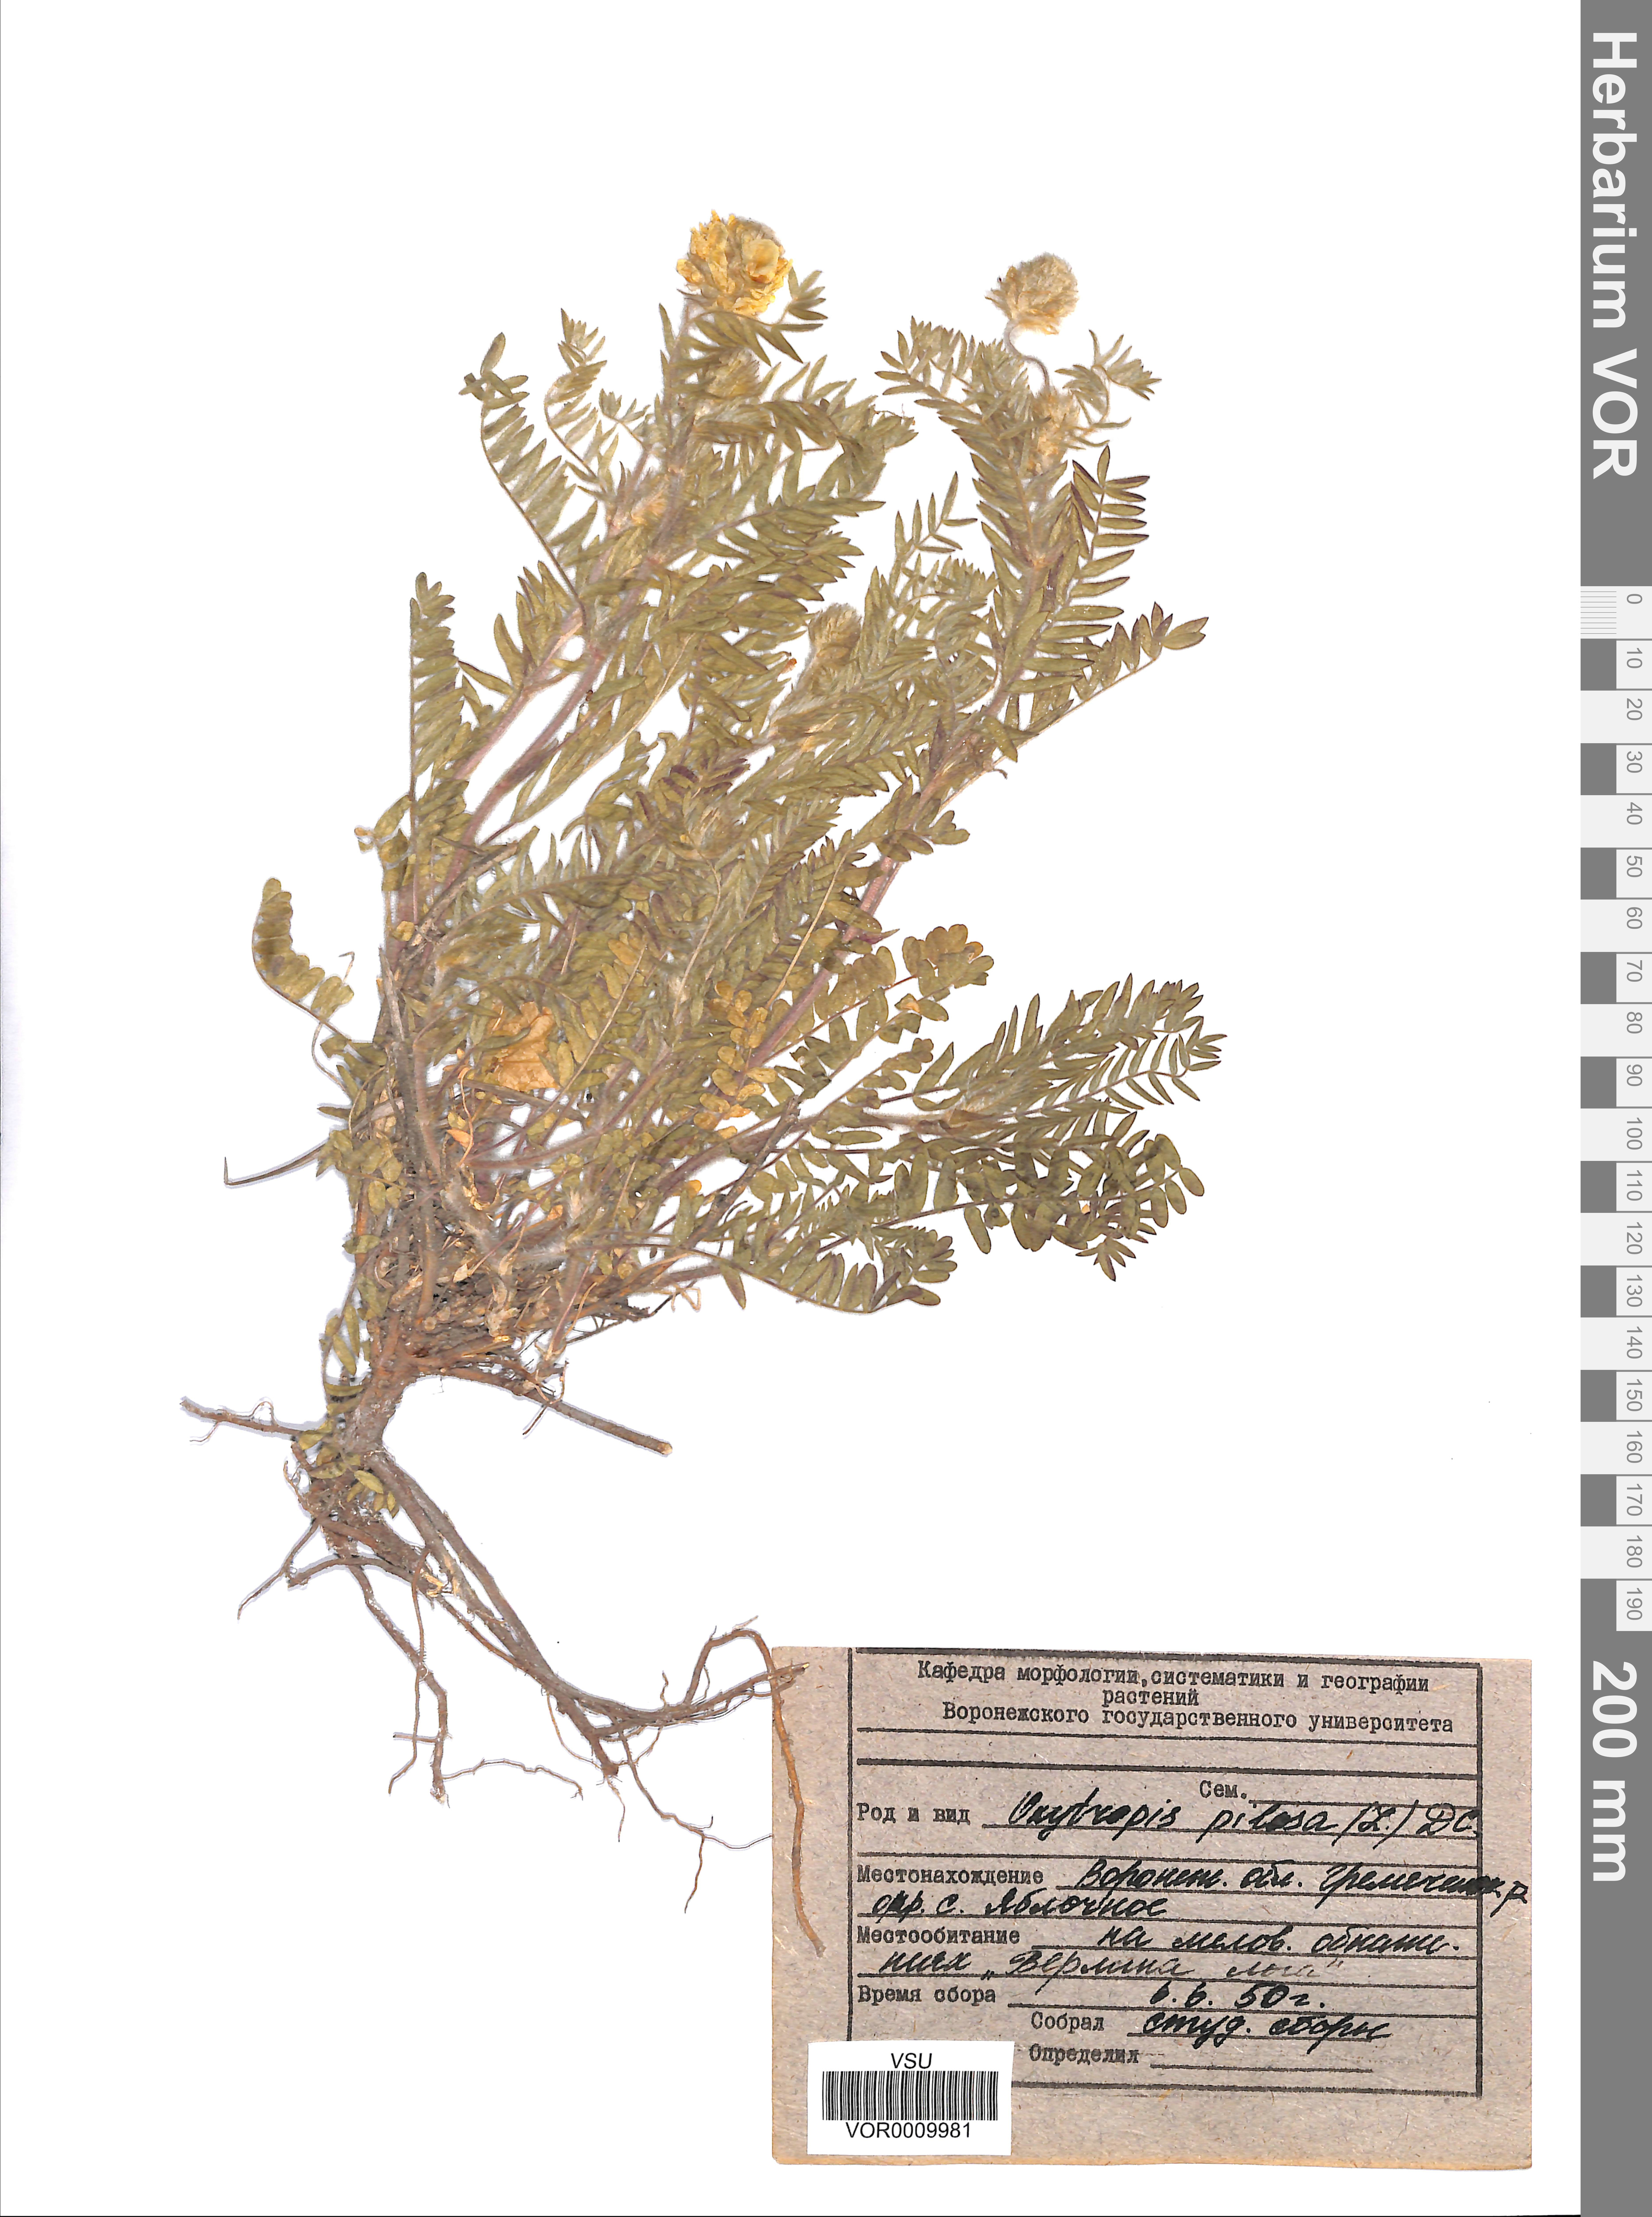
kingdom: Plantae
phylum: Tracheophyta
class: Magnoliopsida
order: Fabales
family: Fabaceae
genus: Oxytropis
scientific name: Oxytropis pilosa
